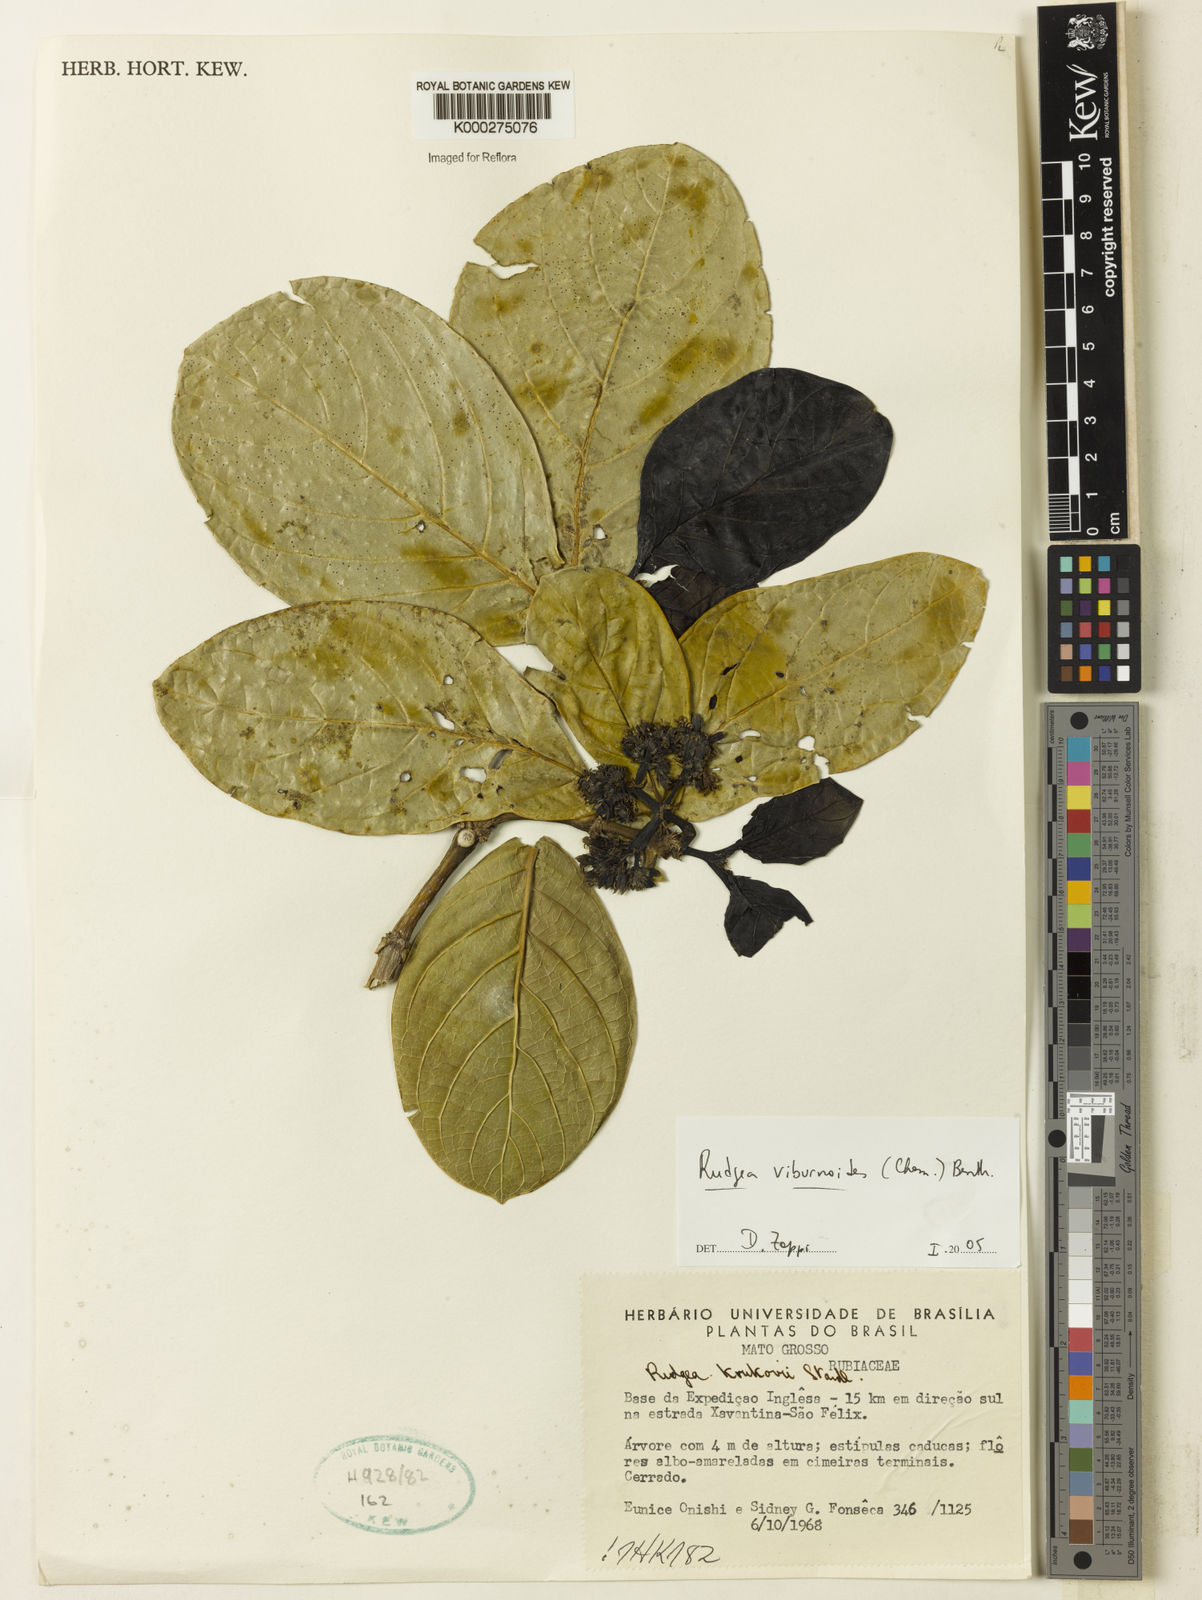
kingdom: Plantae
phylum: Tracheophyta
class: Magnoliopsida
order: Gentianales
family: Rubiaceae
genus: Rudgea
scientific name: Rudgea viburnoides
